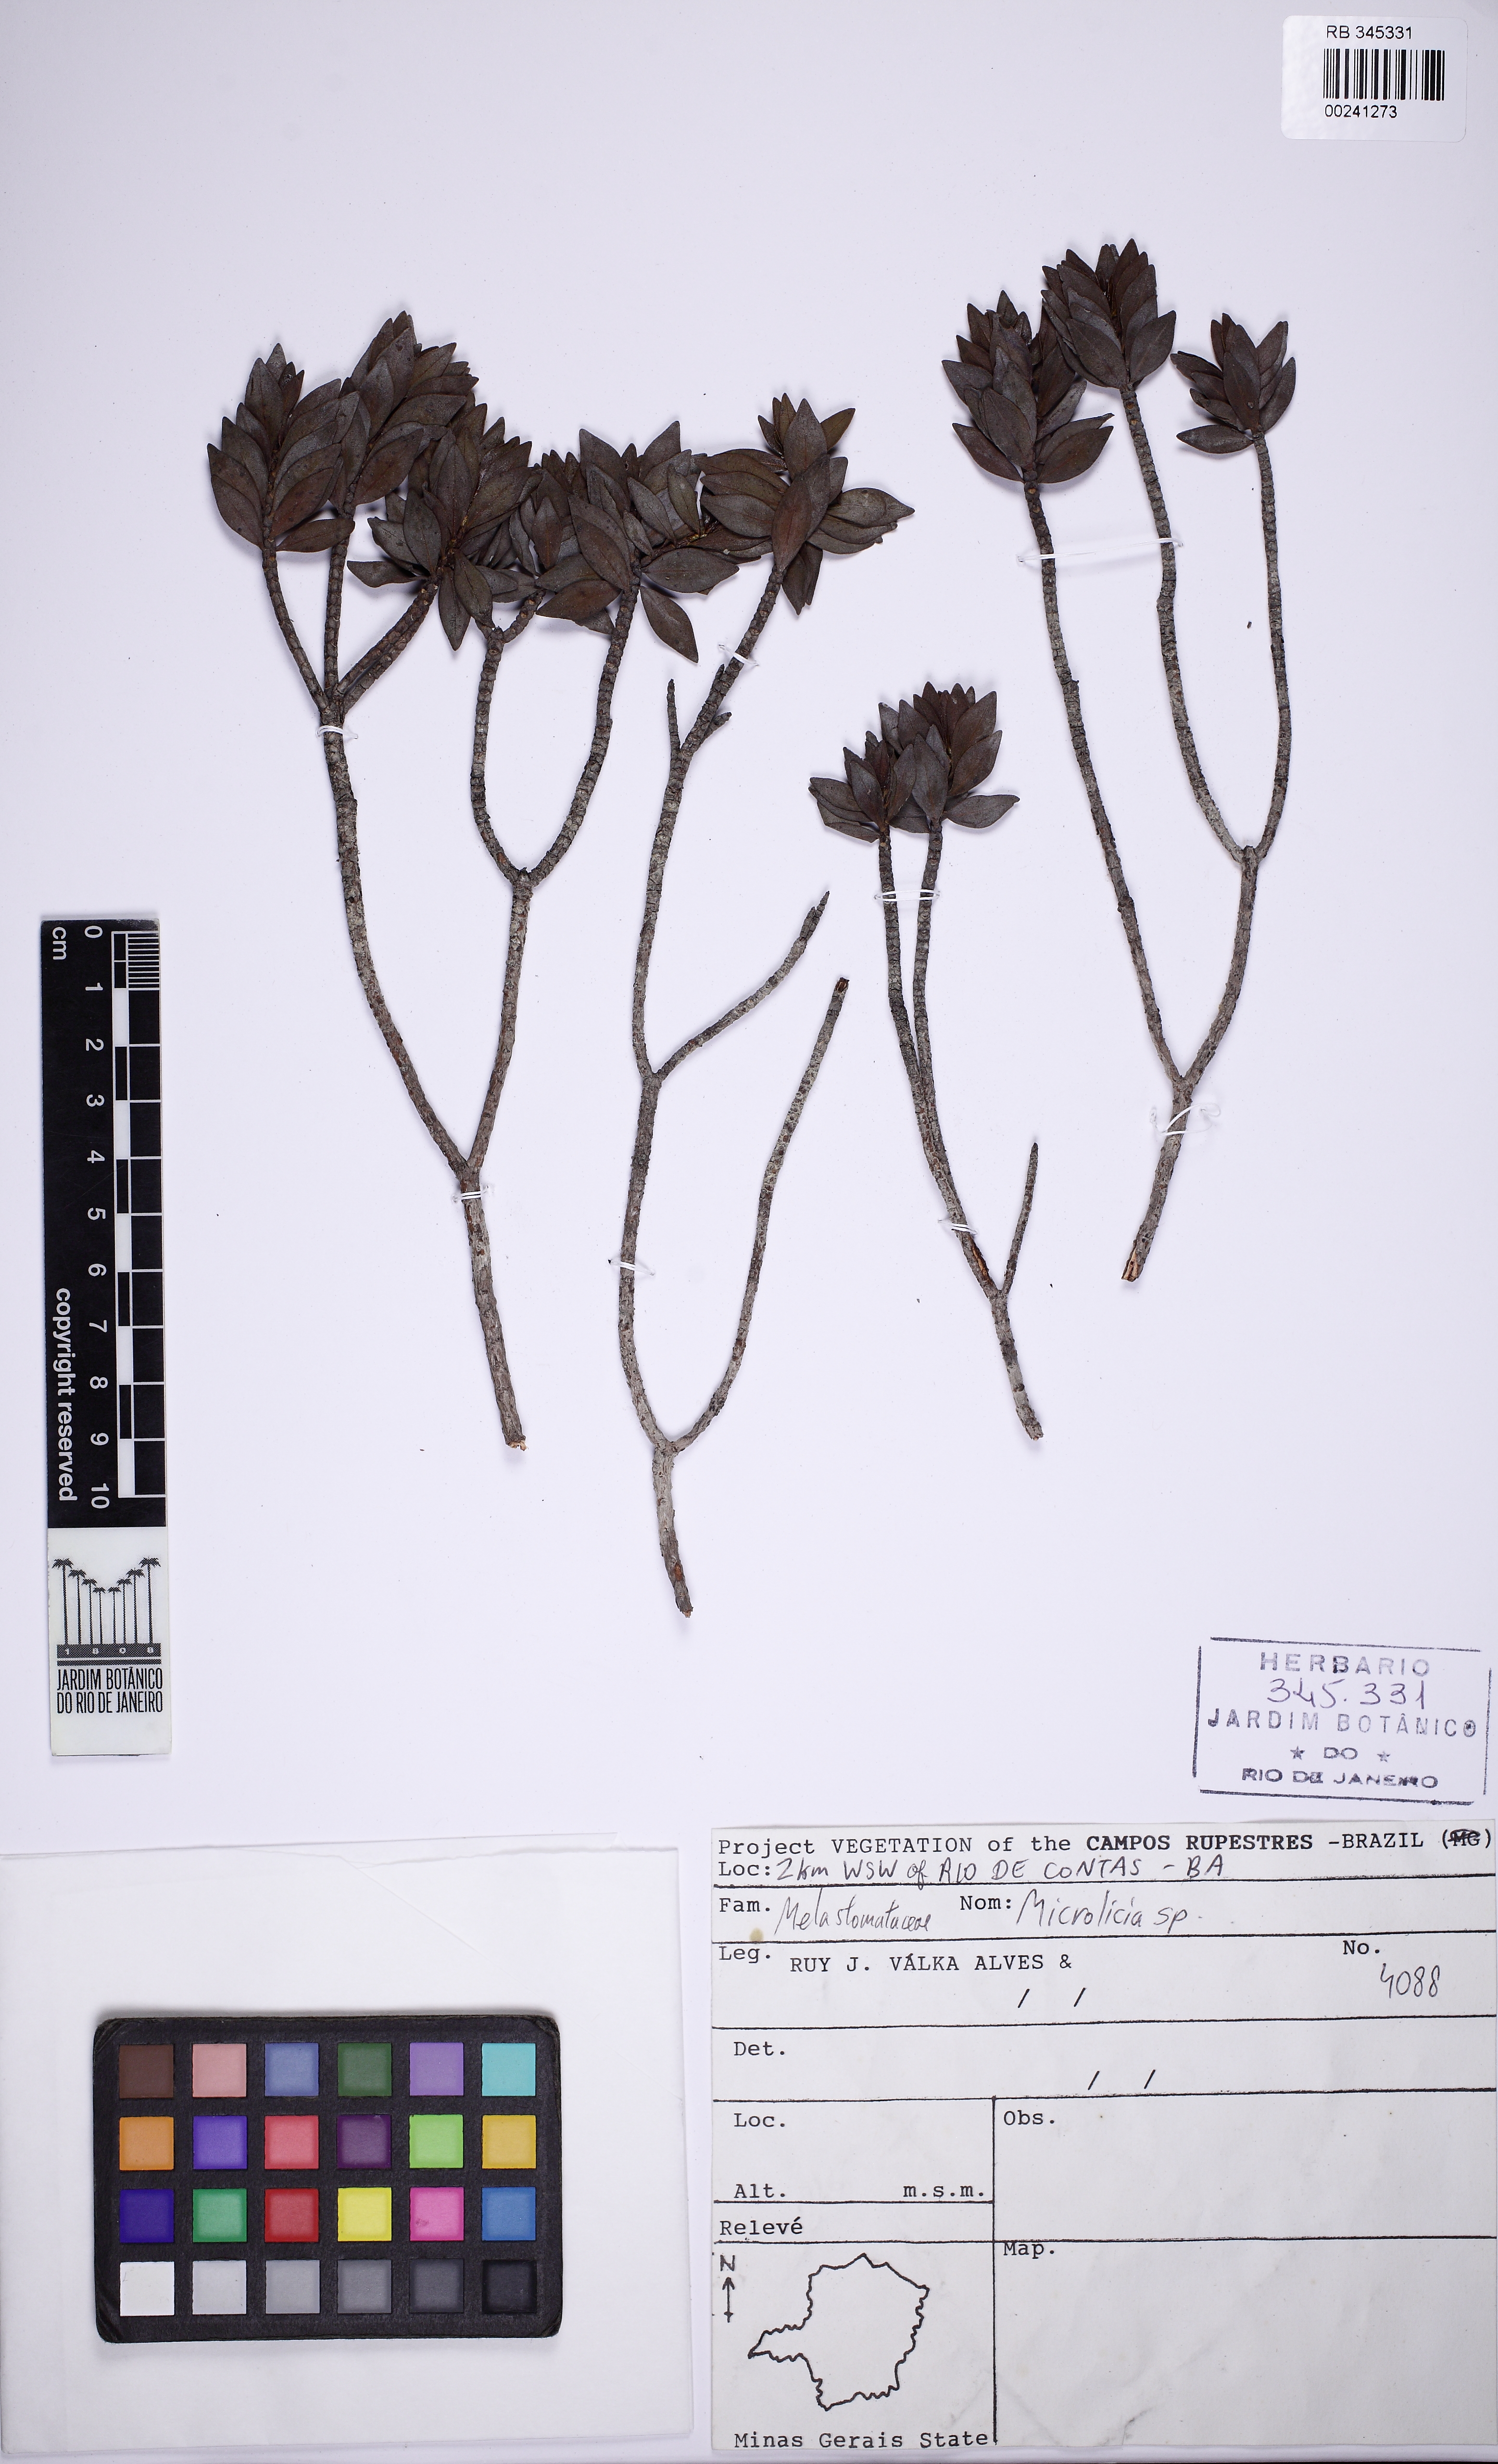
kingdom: Plantae
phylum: Tracheophyta
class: Magnoliopsida
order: Myrtales
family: Melastomataceae
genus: Microlicia
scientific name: Microlicia balsamifera
